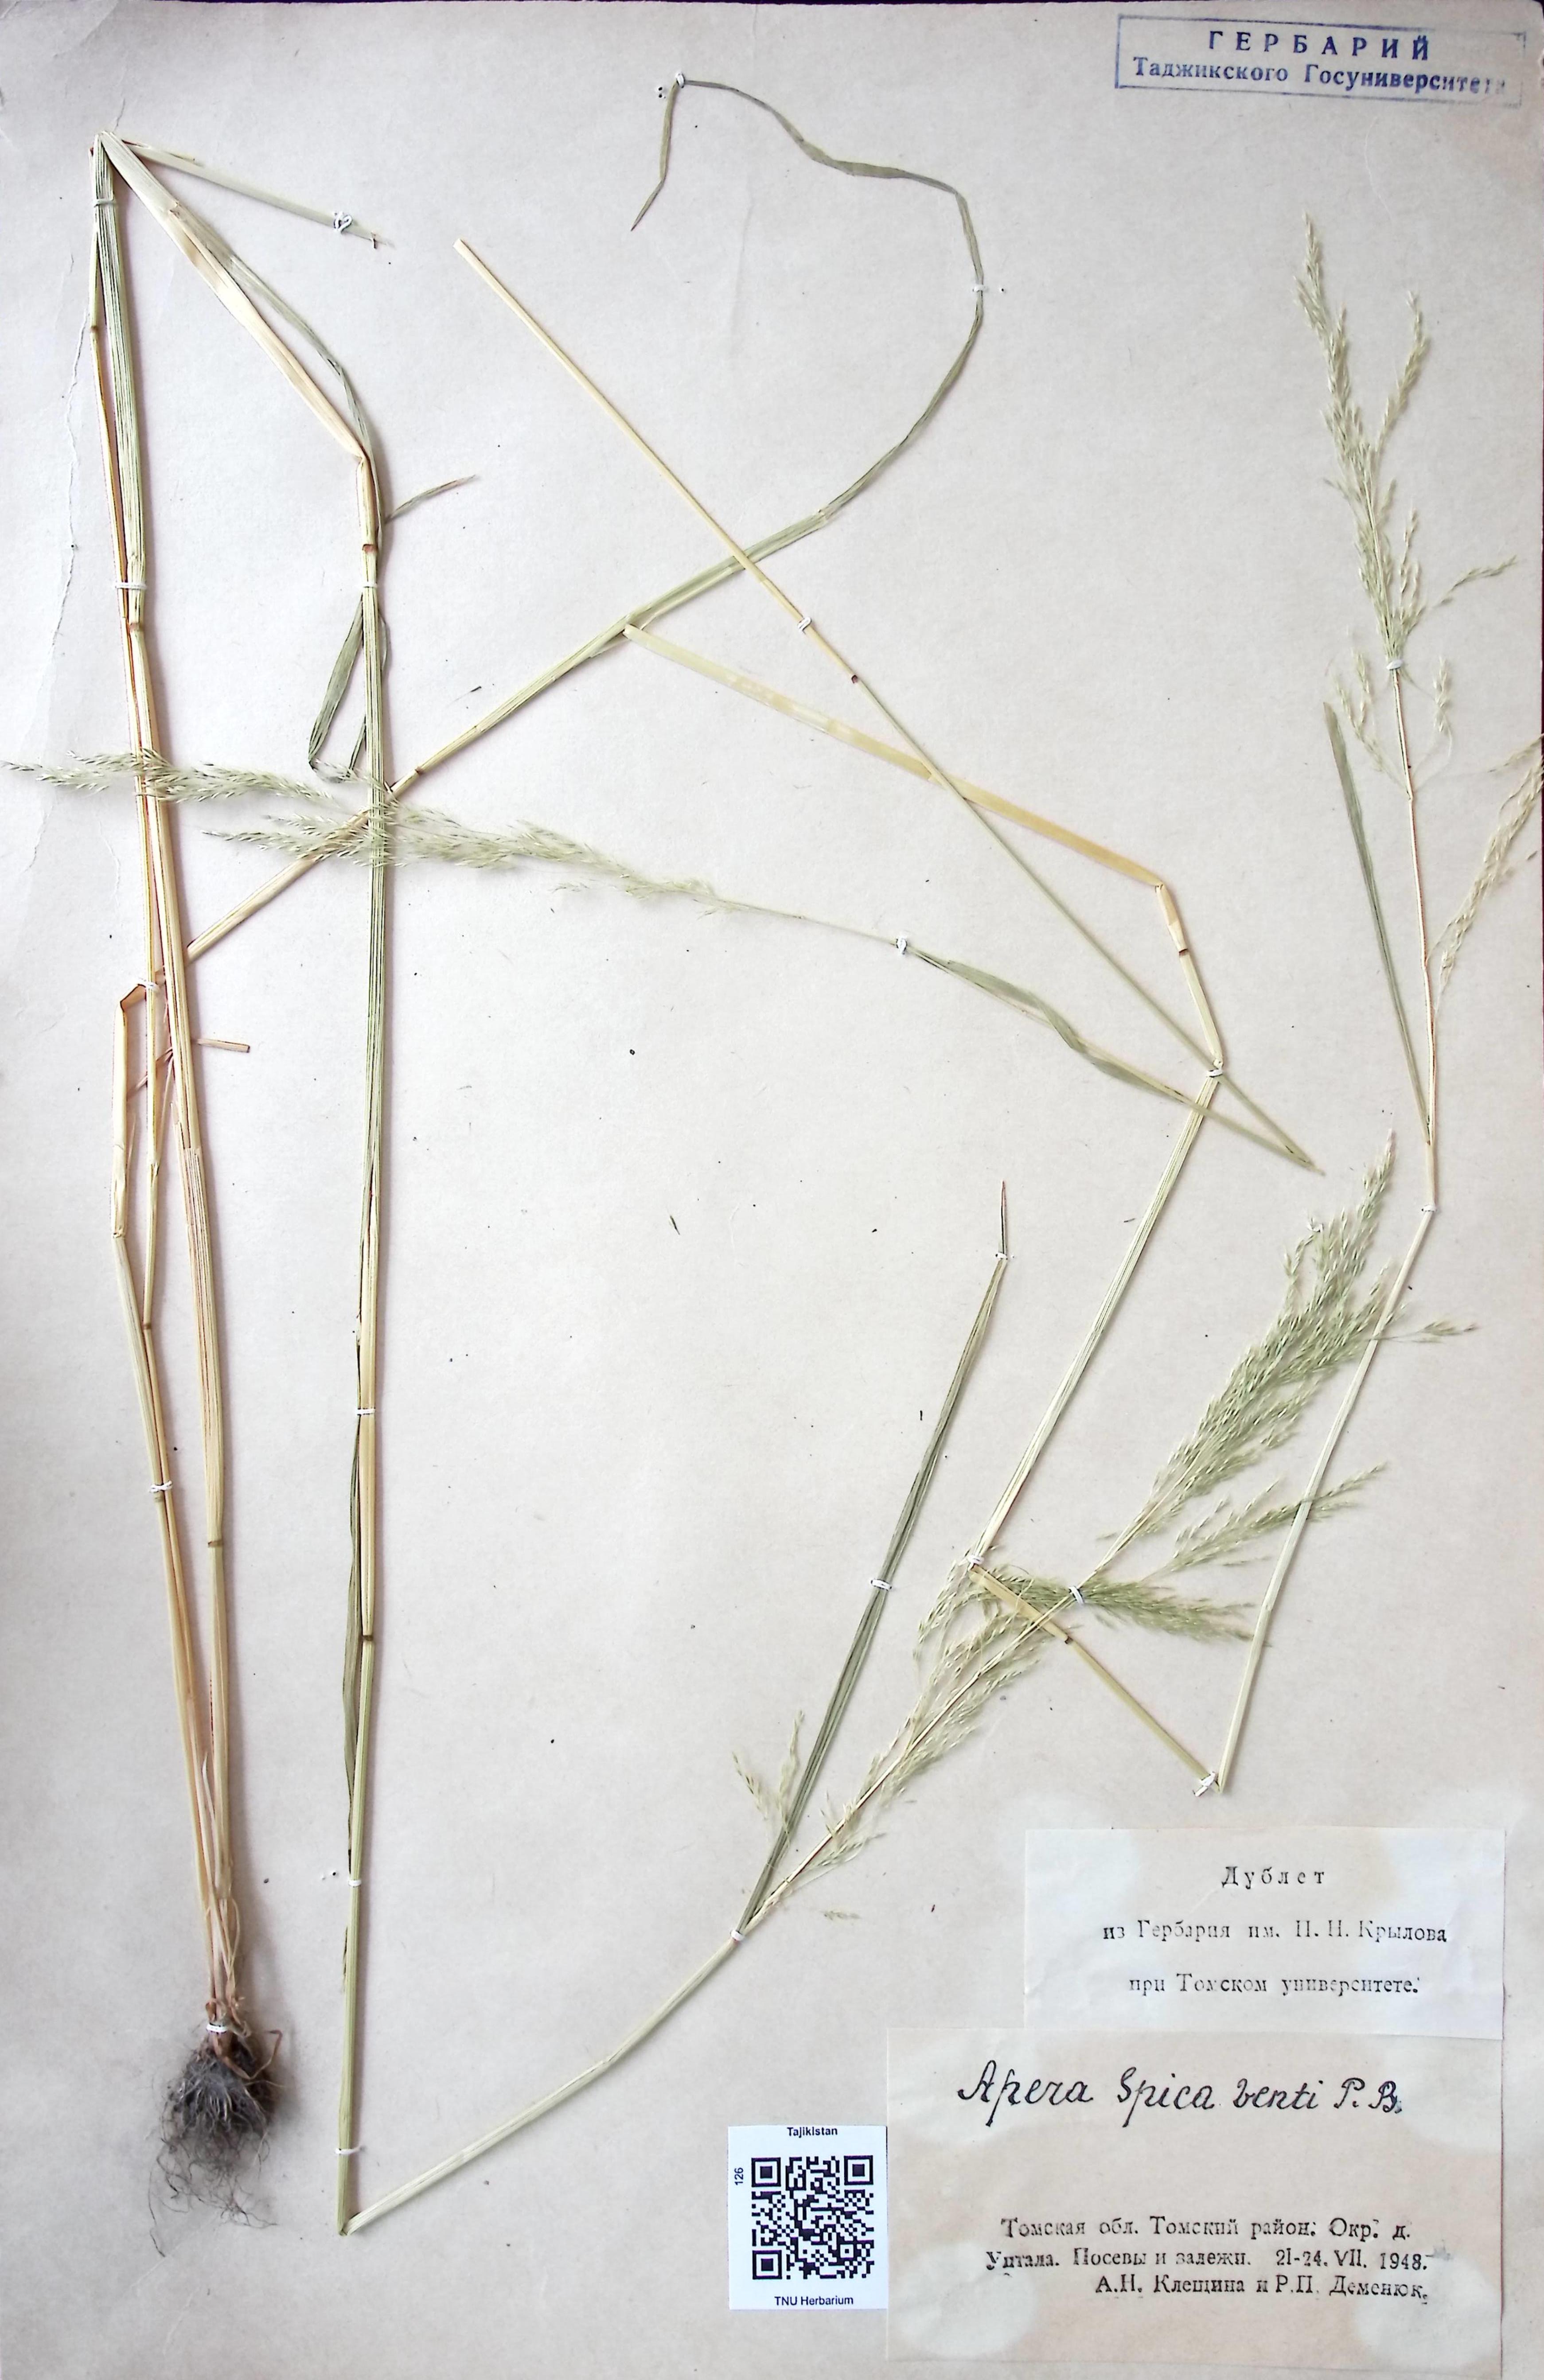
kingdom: Plantae
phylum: Tracheophyta
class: Liliopsida
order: Poales
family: Poaceae
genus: Apera
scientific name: Apera spica-venti
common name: Loose silky-bent
